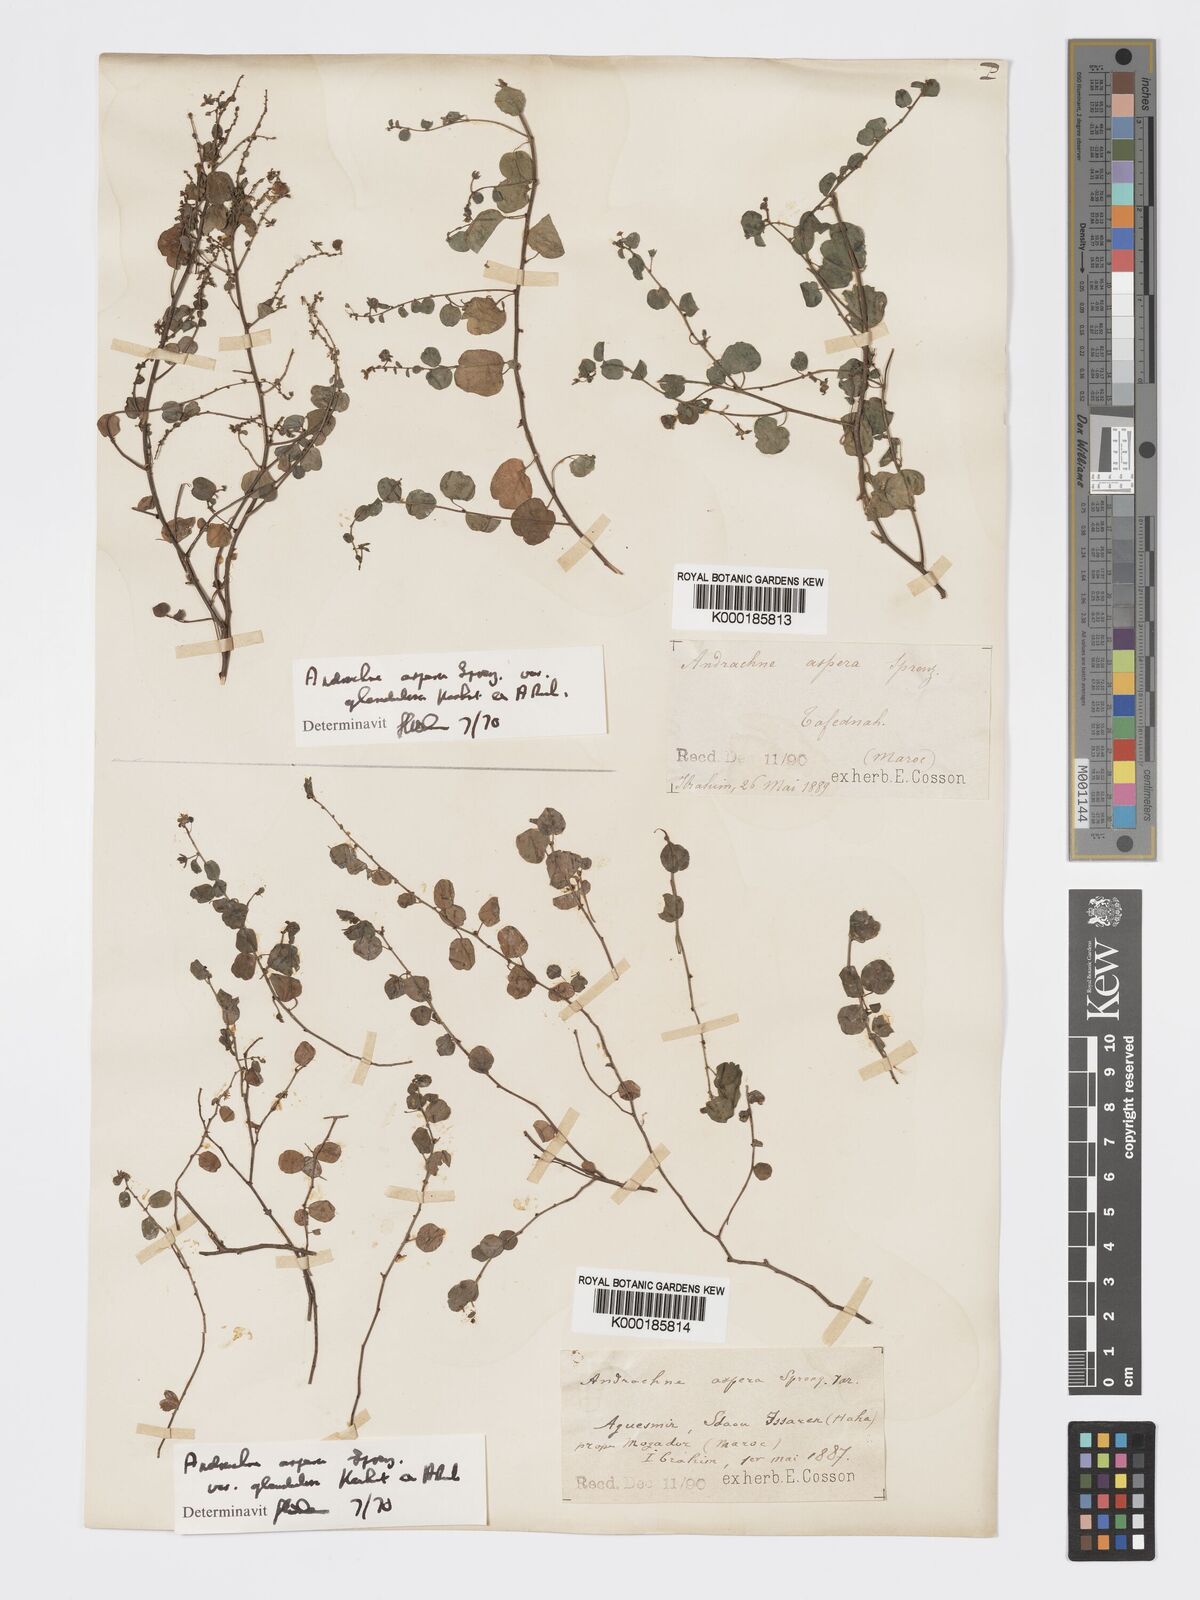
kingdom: Plantae
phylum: Tracheophyta
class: Magnoliopsida
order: Malpighiales
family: Phyllanthaceae
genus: Andrachne
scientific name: Andrachne aspera
